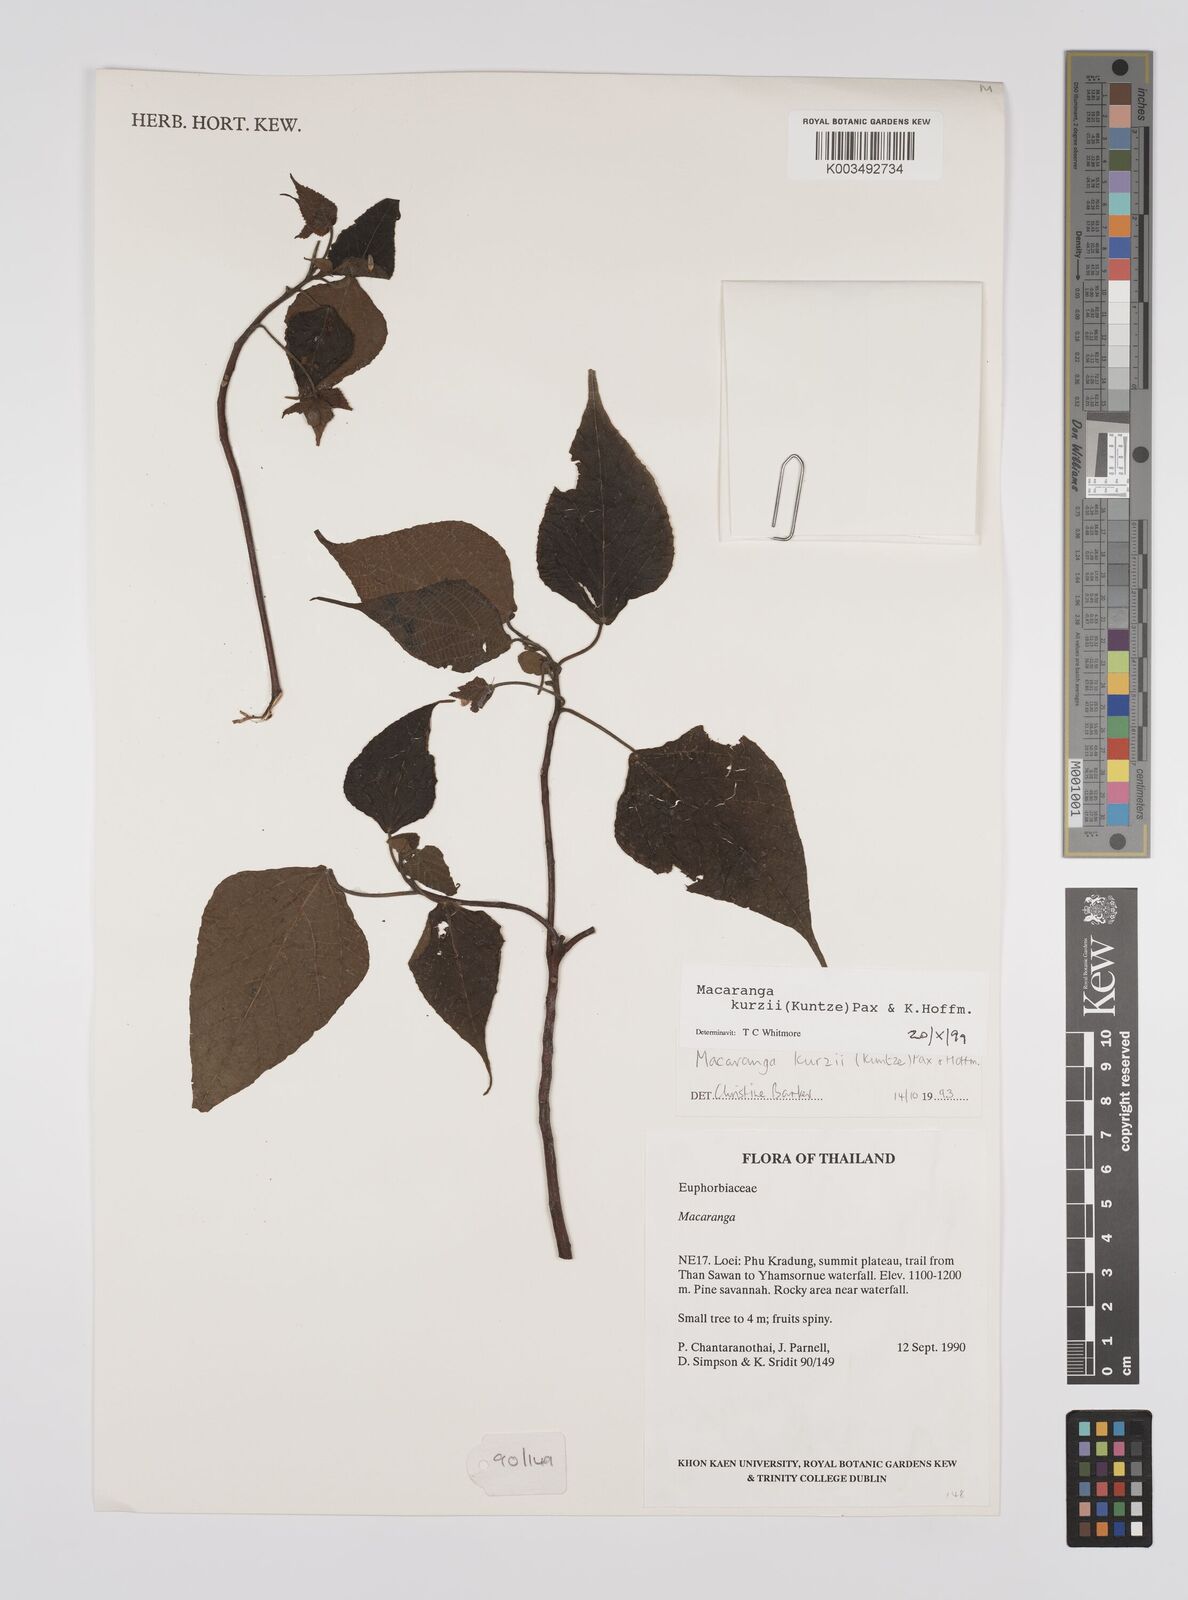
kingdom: Plantae
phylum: Tracheophyta
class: Magnoliopsida
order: Malpighiales
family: Euphorbiaceae
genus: Macaranga
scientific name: Macaranga kurzii
